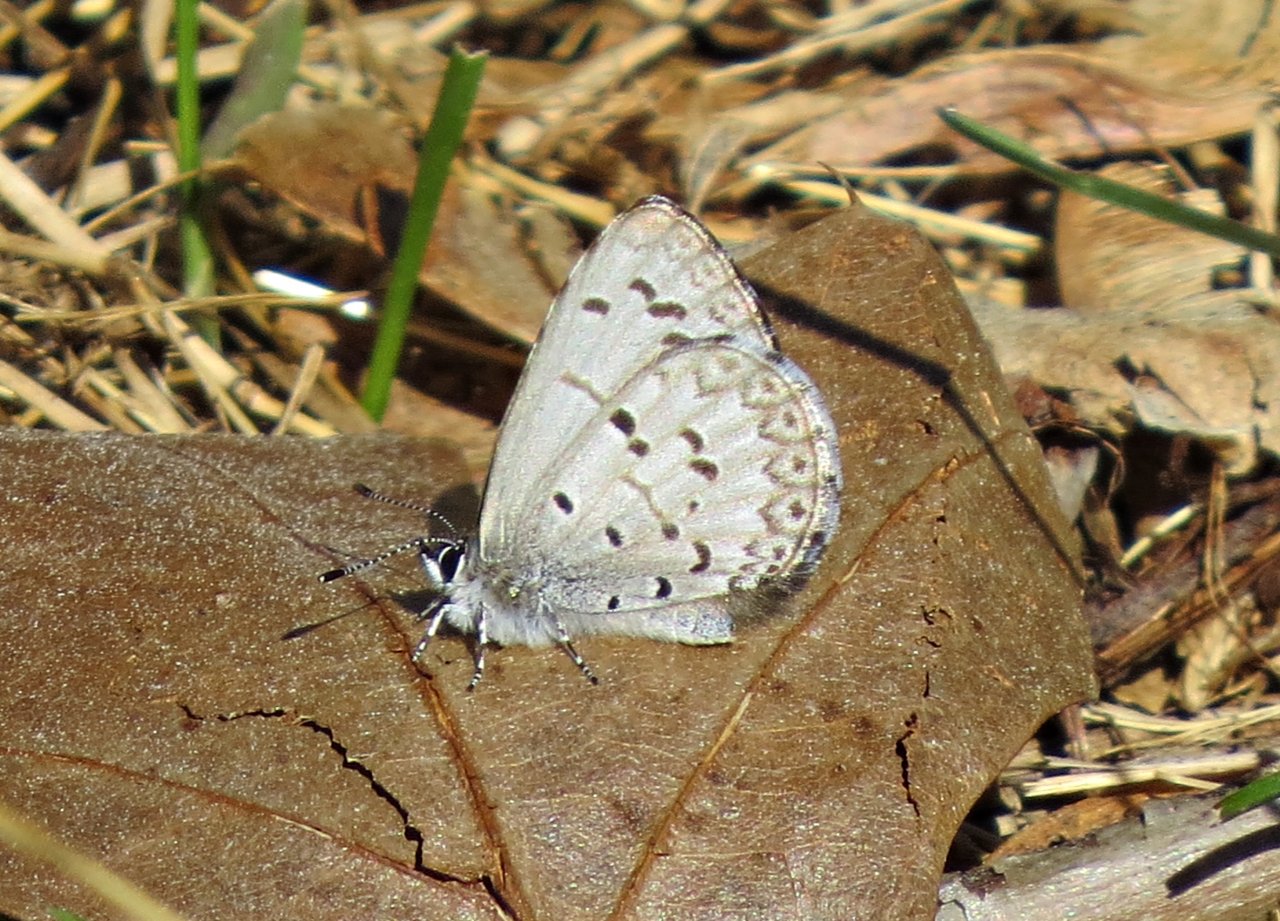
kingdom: Animalia
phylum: Arthropoda
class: Insecta
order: Lepidoptera
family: Lycaenidae
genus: Celastrina
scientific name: Celastrina ladon
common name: Spring Azure
